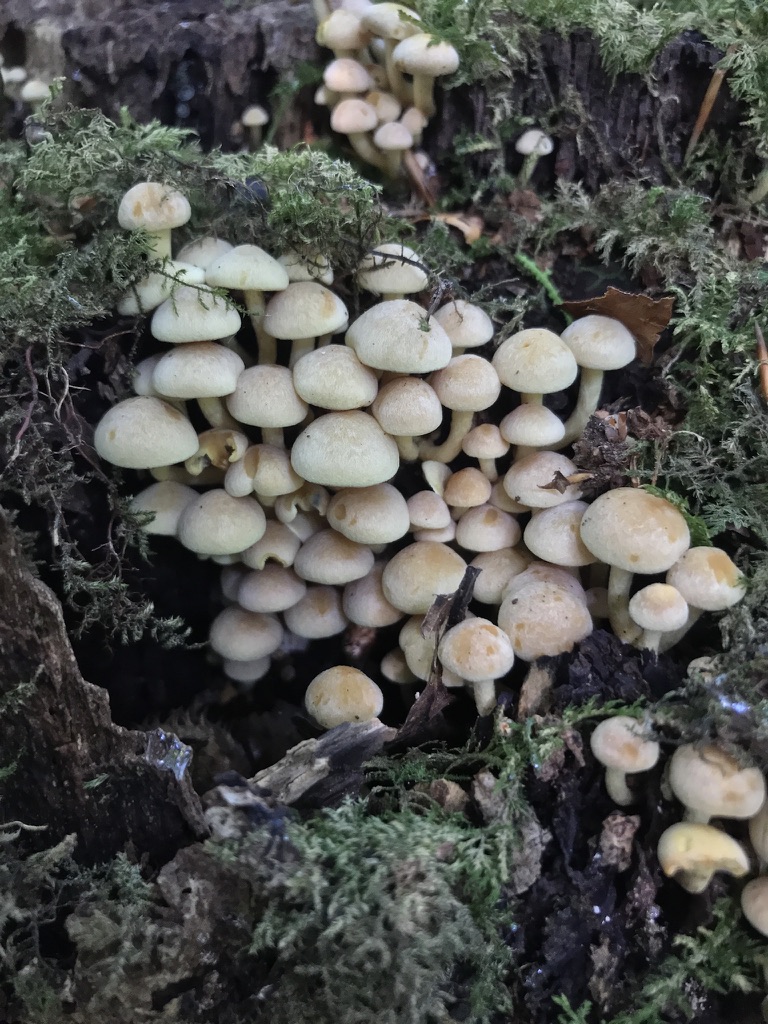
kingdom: Fungi
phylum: Basidiomycota
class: Agaricomycetes
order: Agaricales
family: Strophariaceae
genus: Hypholoma
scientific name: Hypholoma fasciculare
